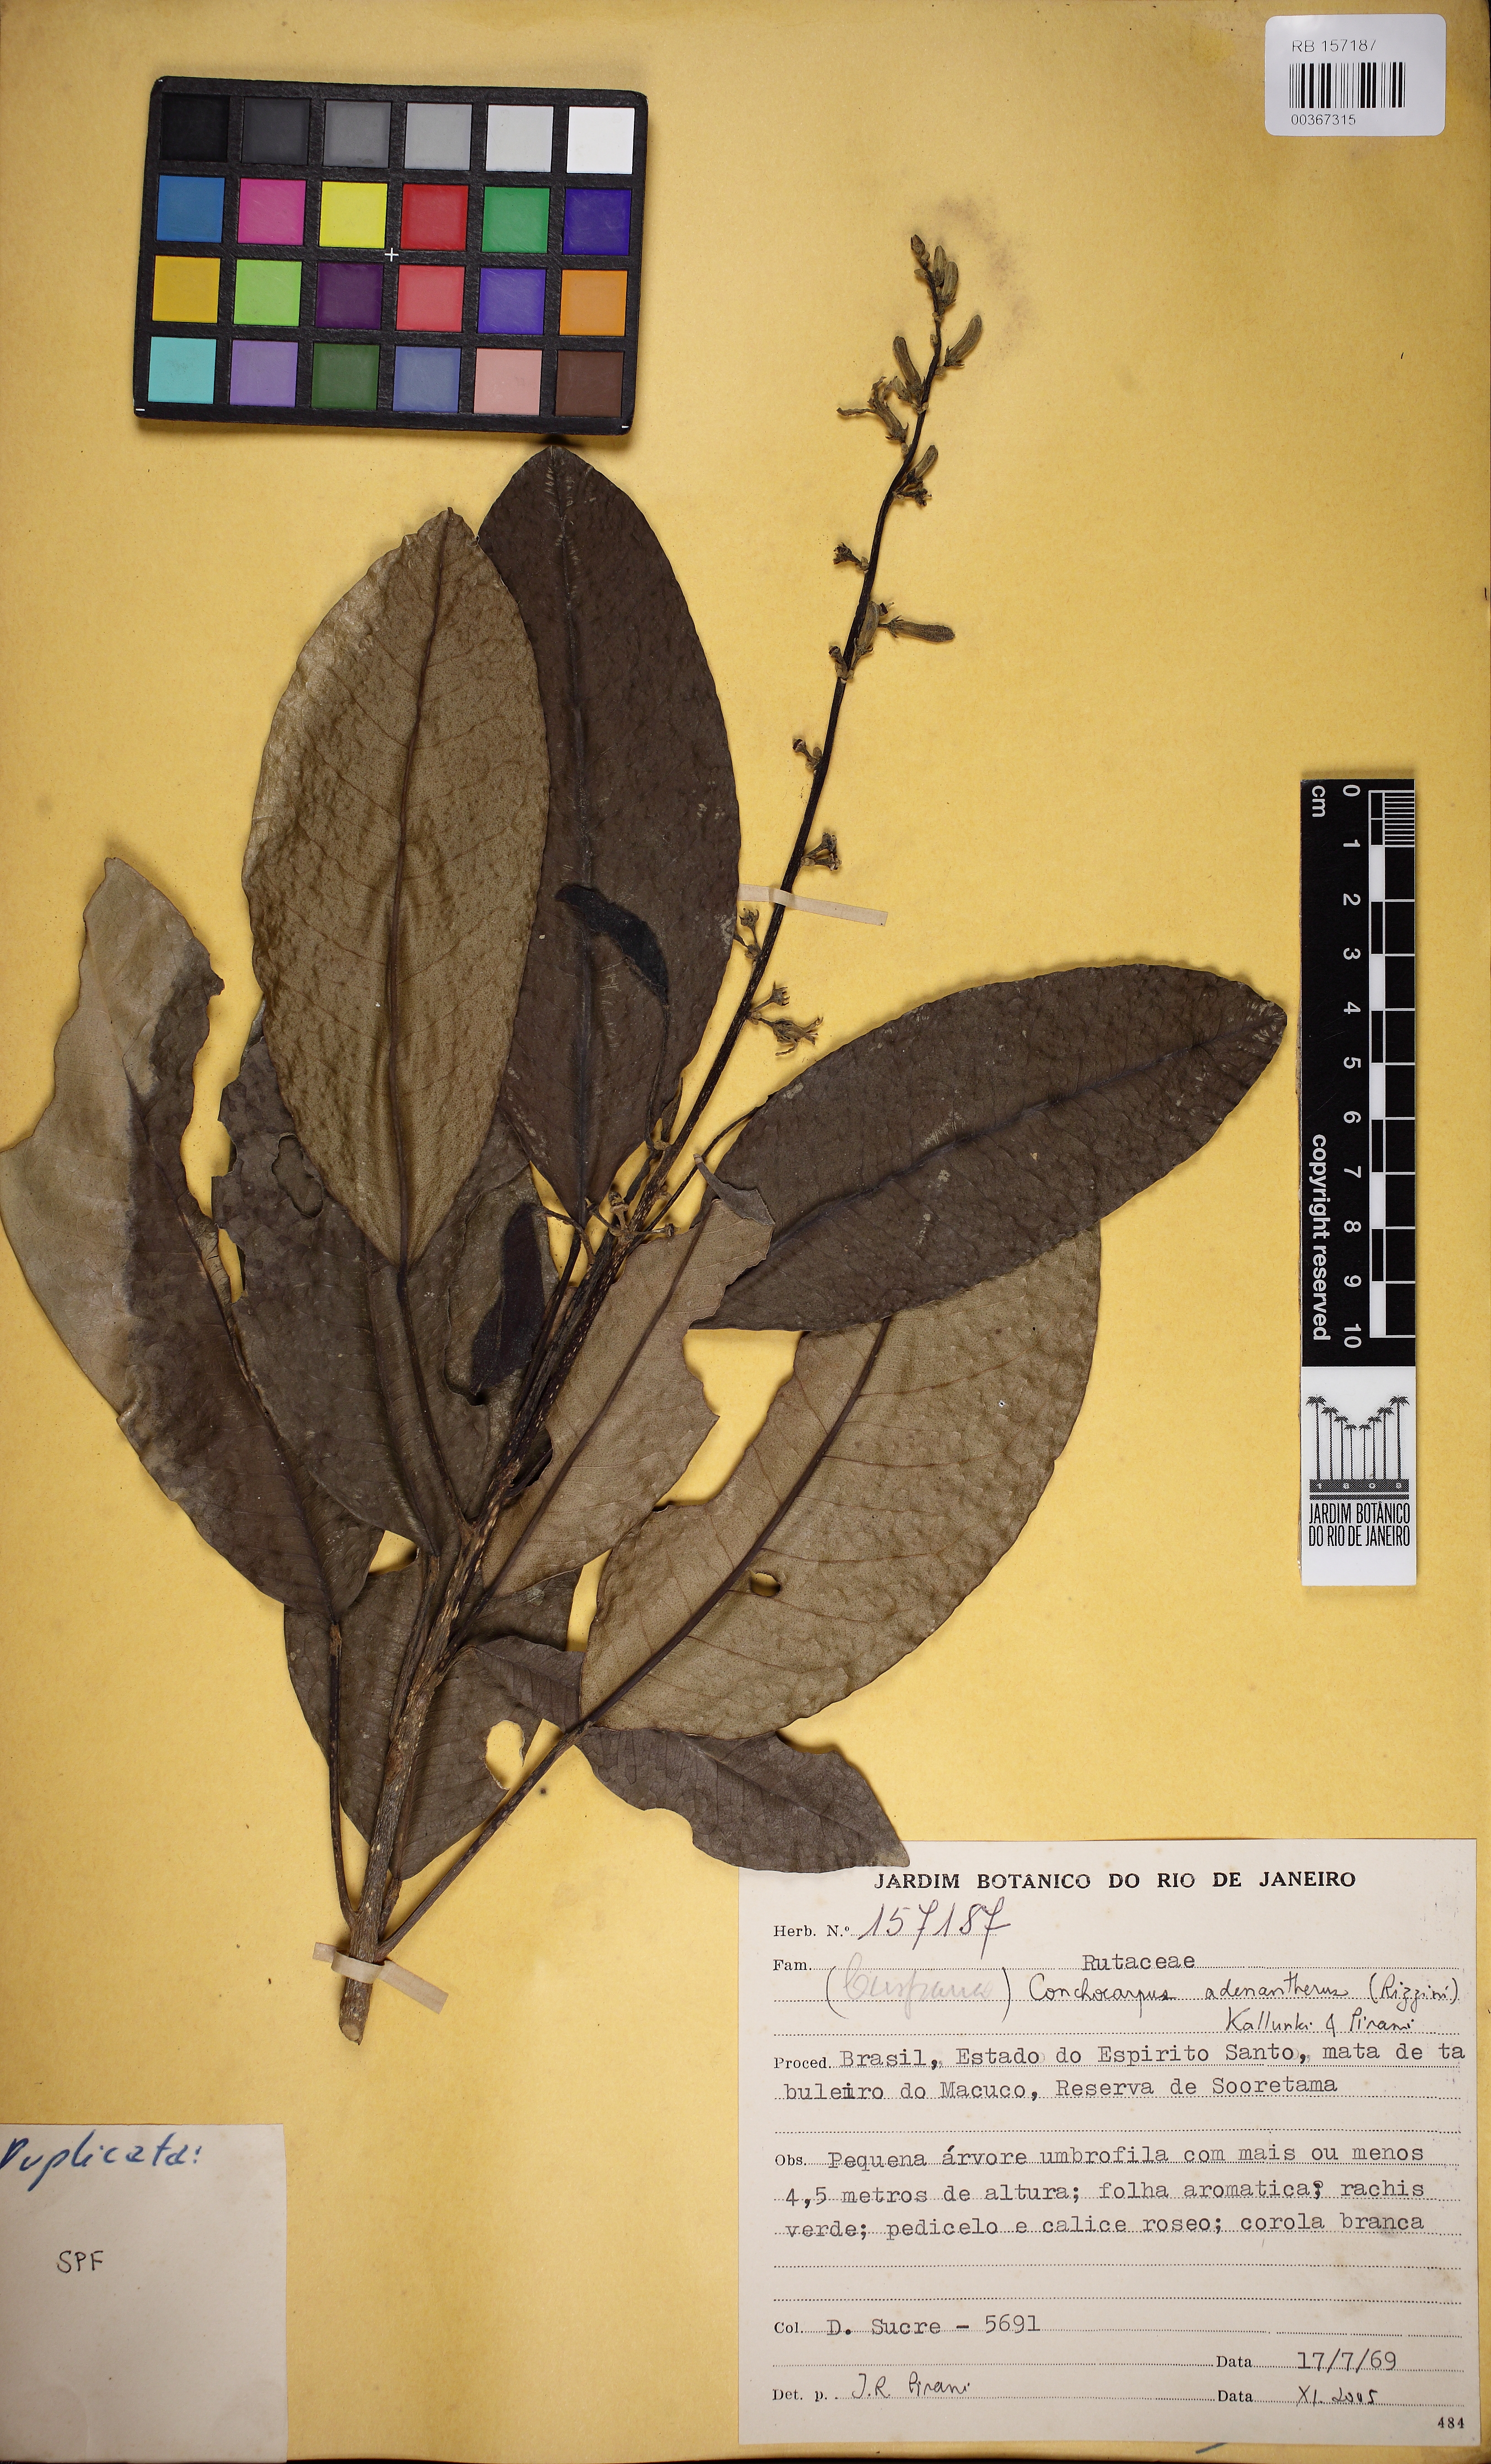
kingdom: Plantae
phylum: Tracheophyta
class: Magnoliopsida
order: Sapindales
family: Rutaceae
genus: Conchocarpus
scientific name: Conchocarpus adenantherus
